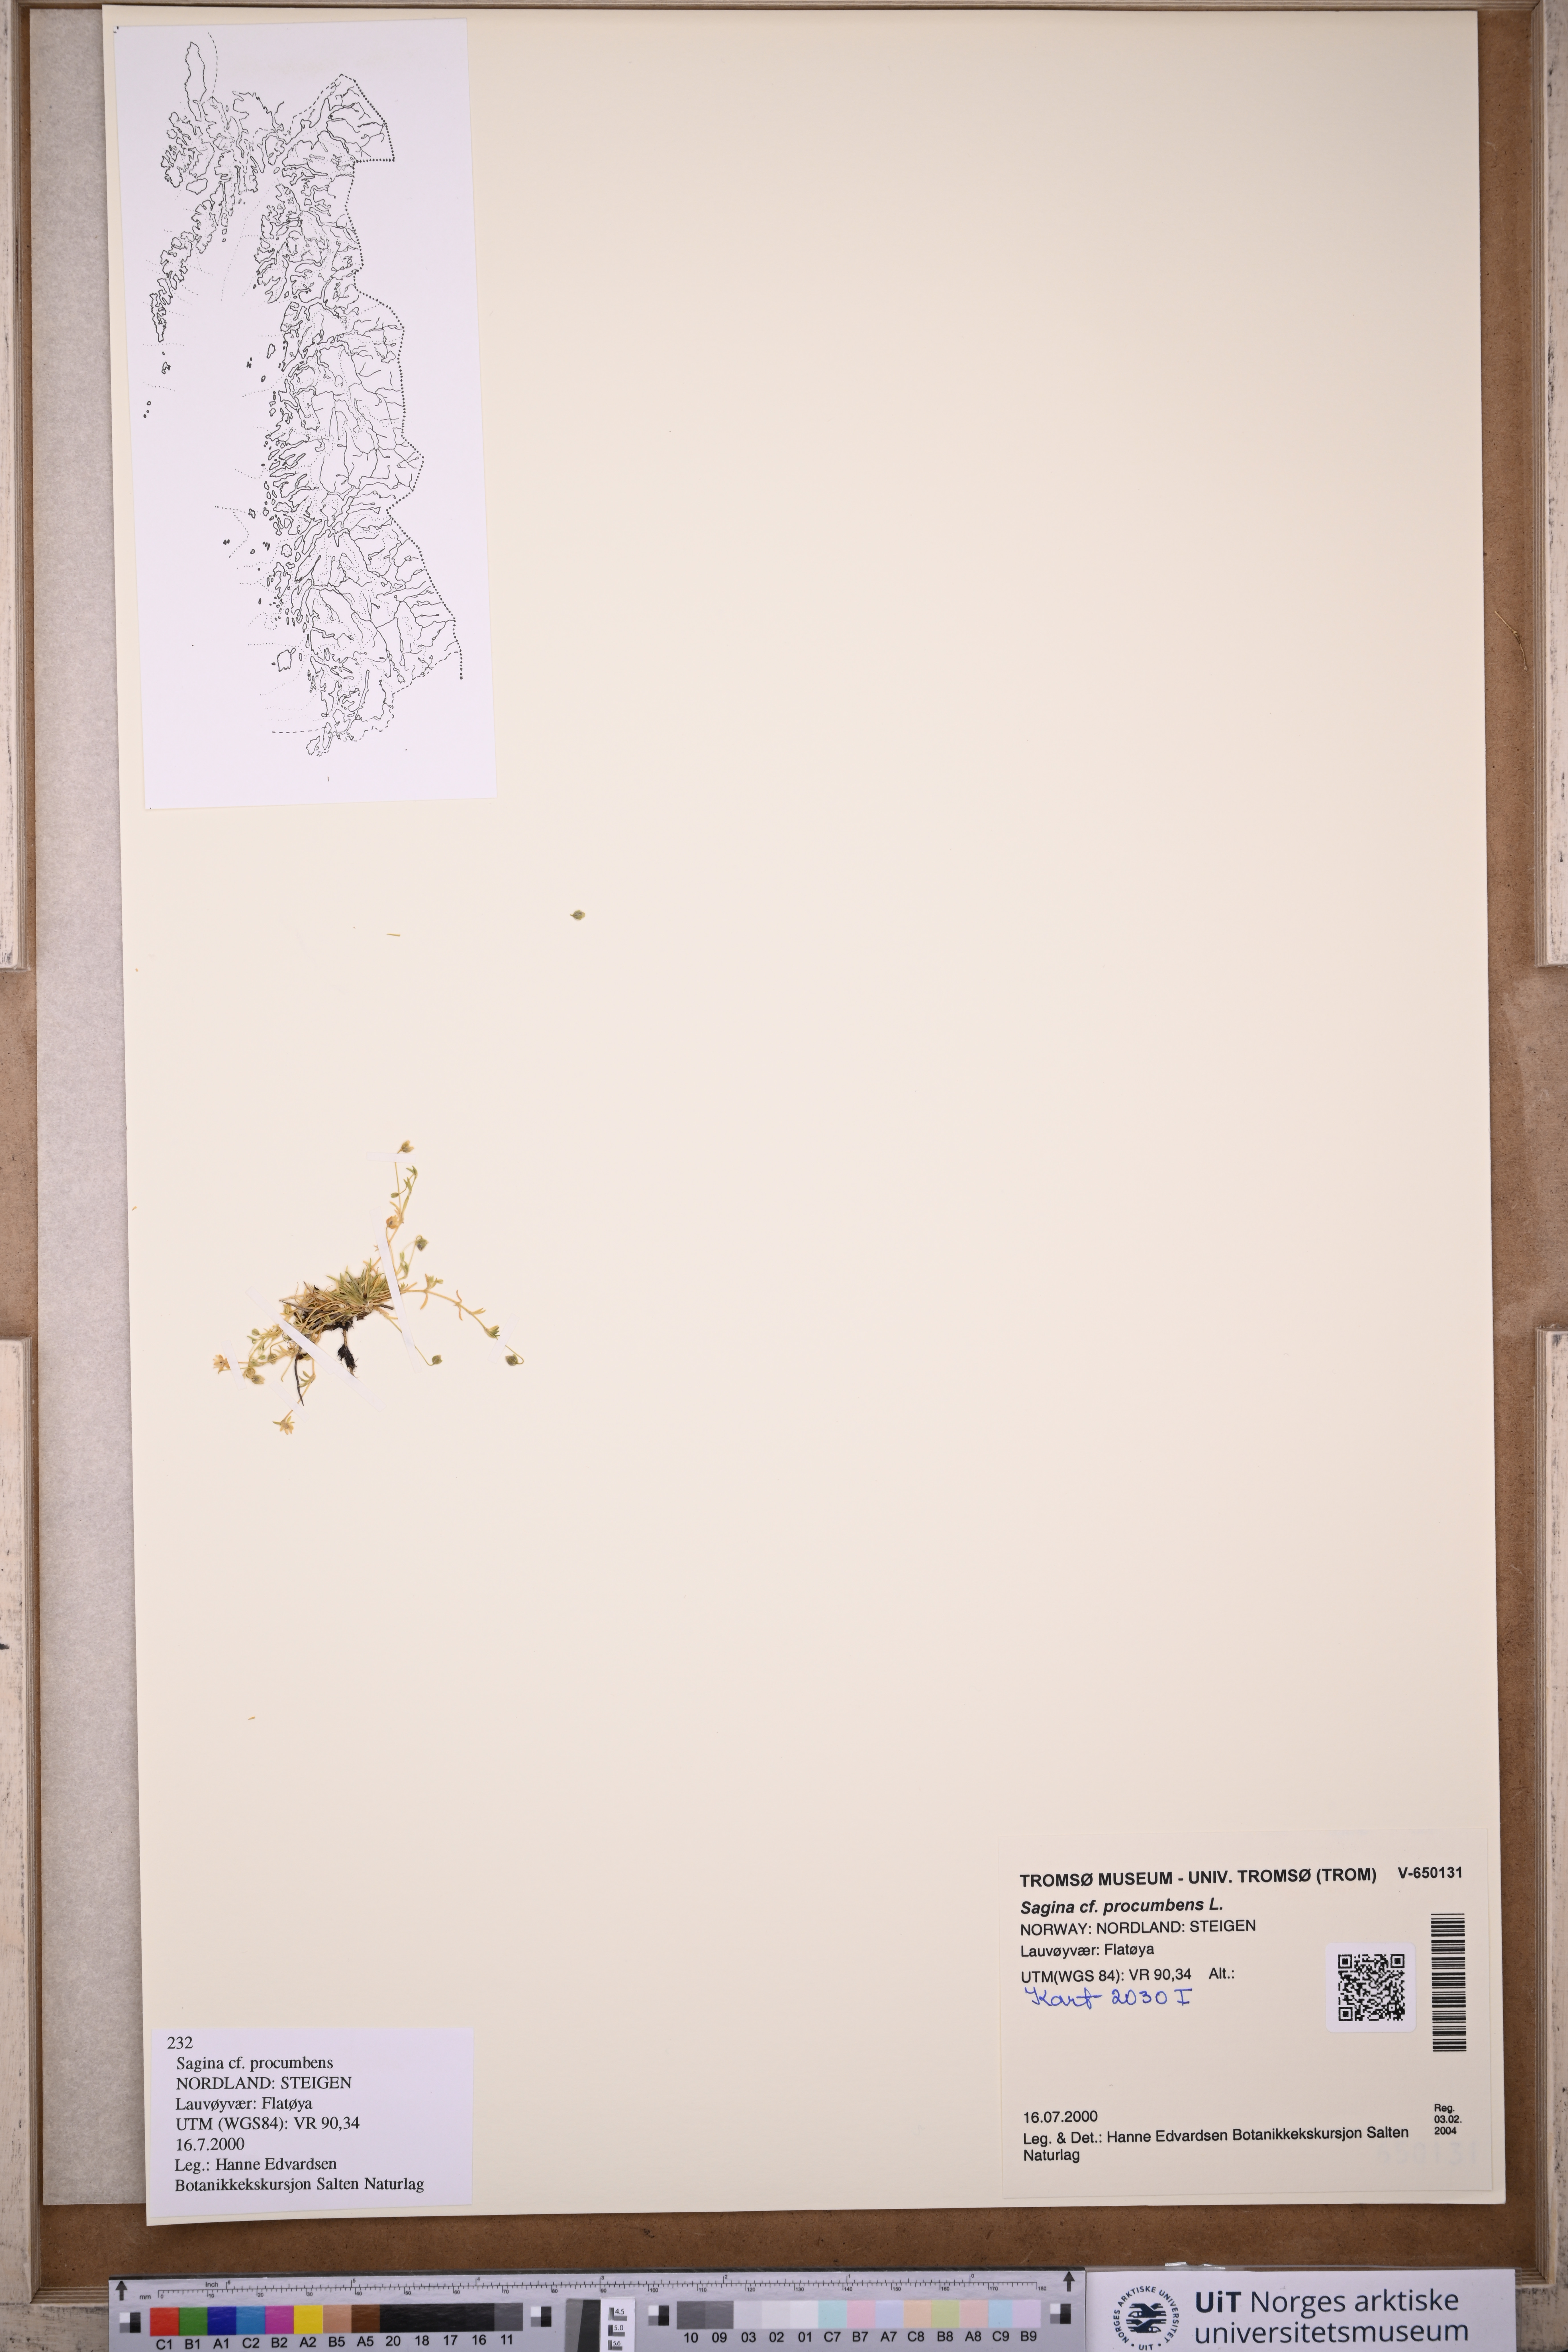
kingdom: Plantae
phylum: Tracheophyta
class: Magnoliopsida
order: Caryophyllales
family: Caryophyllaceae
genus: Sagina
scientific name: Sagina procumbens
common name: Procumbent pearlwort
